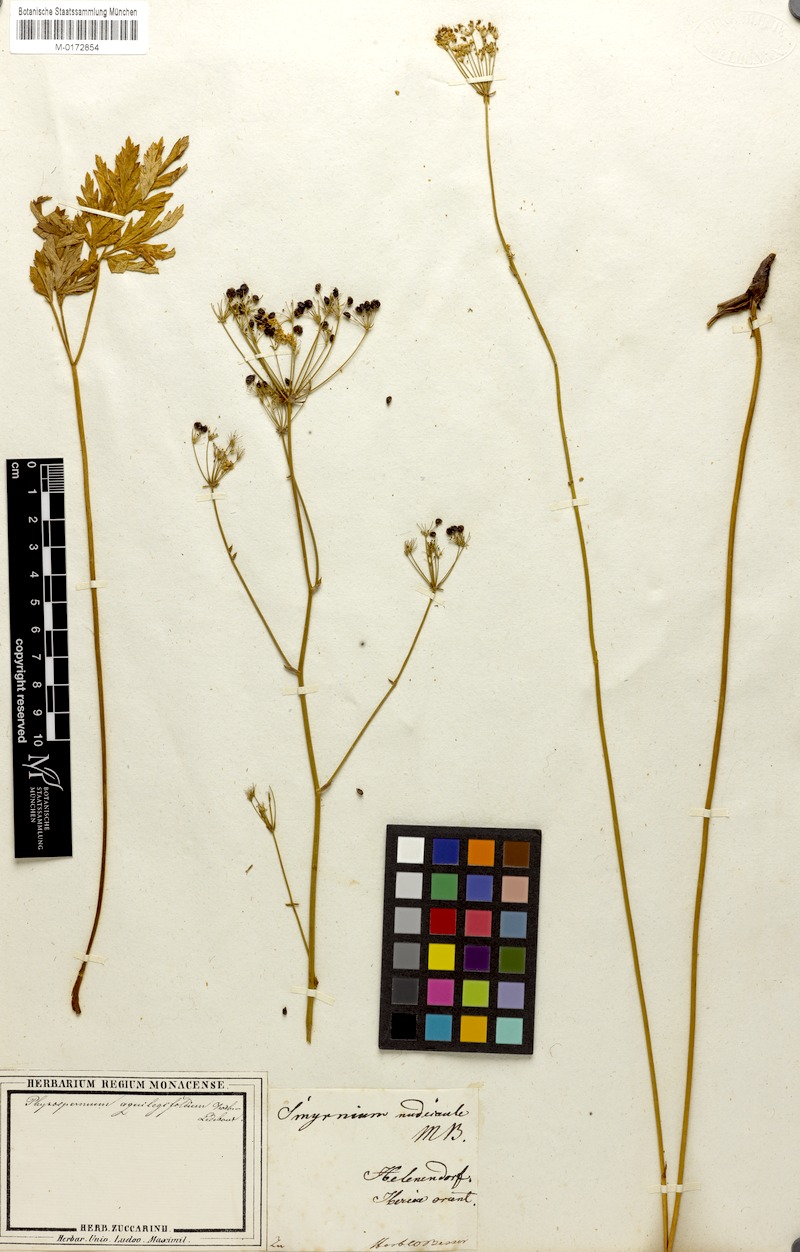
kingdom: Plantae
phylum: Tracheophyta
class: Magnoliopsida
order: Apiales
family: Apiaceae
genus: Physospermum
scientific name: Physospermum cornubiense
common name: Bladderseed
